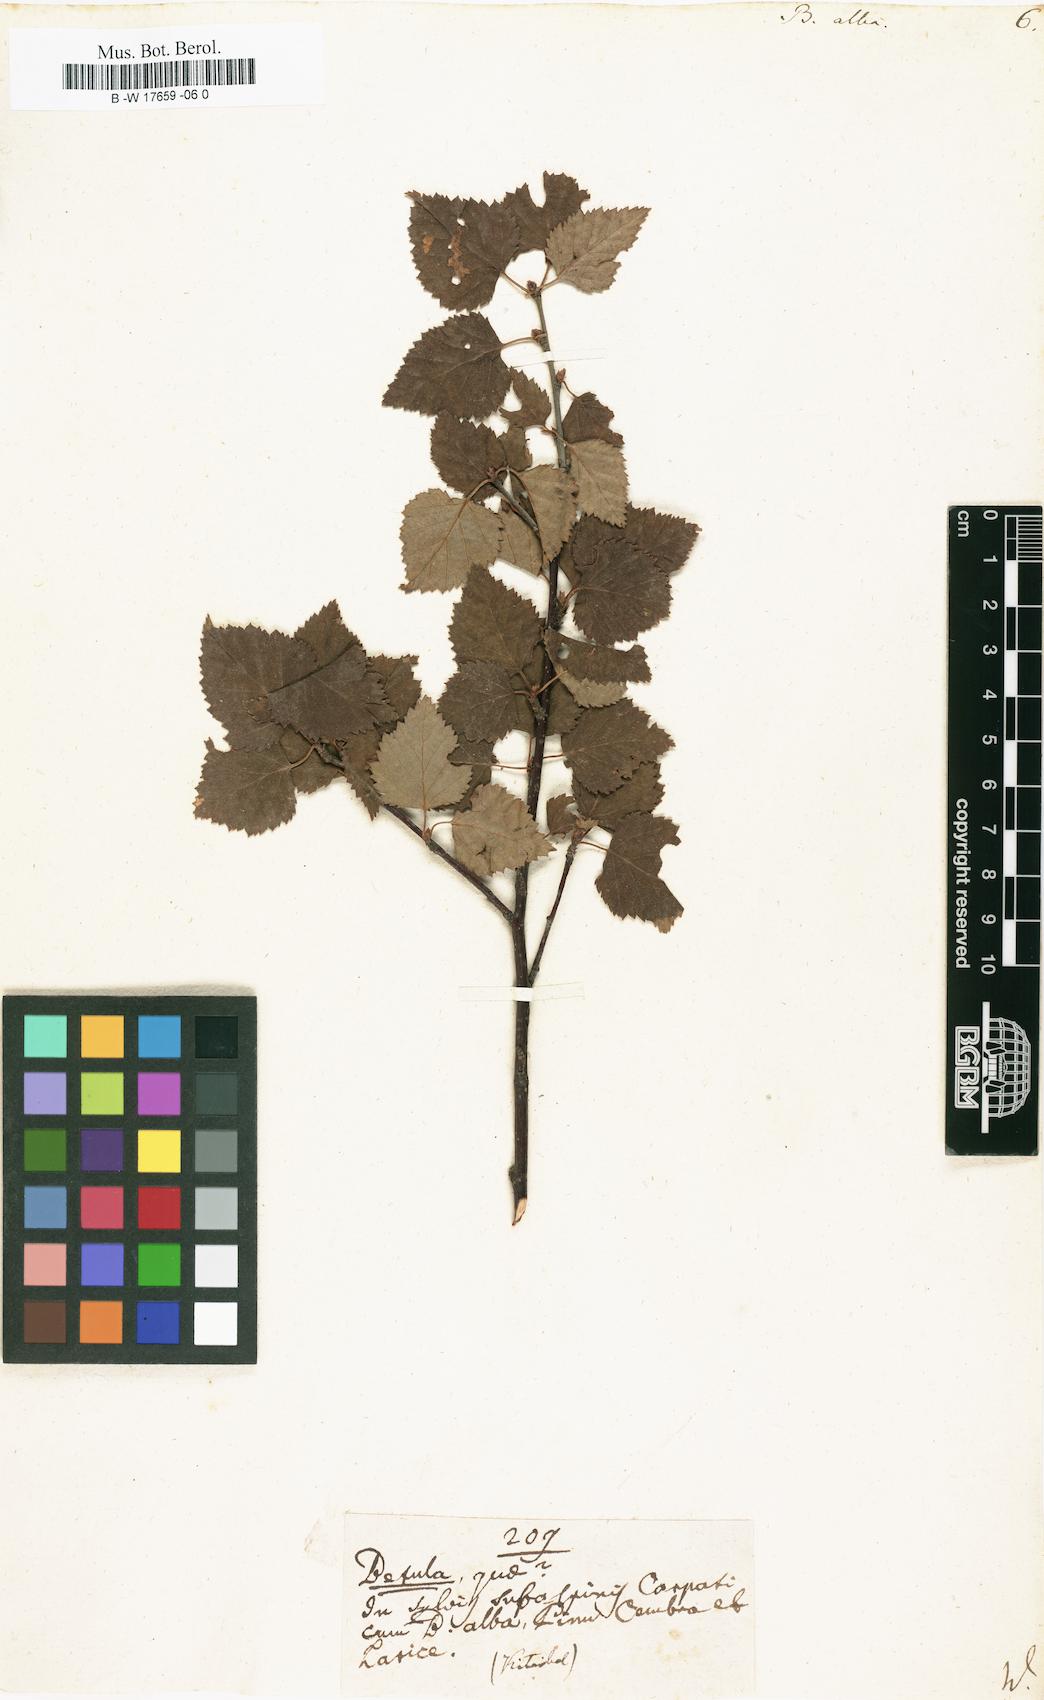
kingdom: Plantae
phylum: Tracheophyta
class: Magnoliopsida
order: Fagales
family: Betulaceae
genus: Betula
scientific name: Betula pubescens
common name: Downy birch
